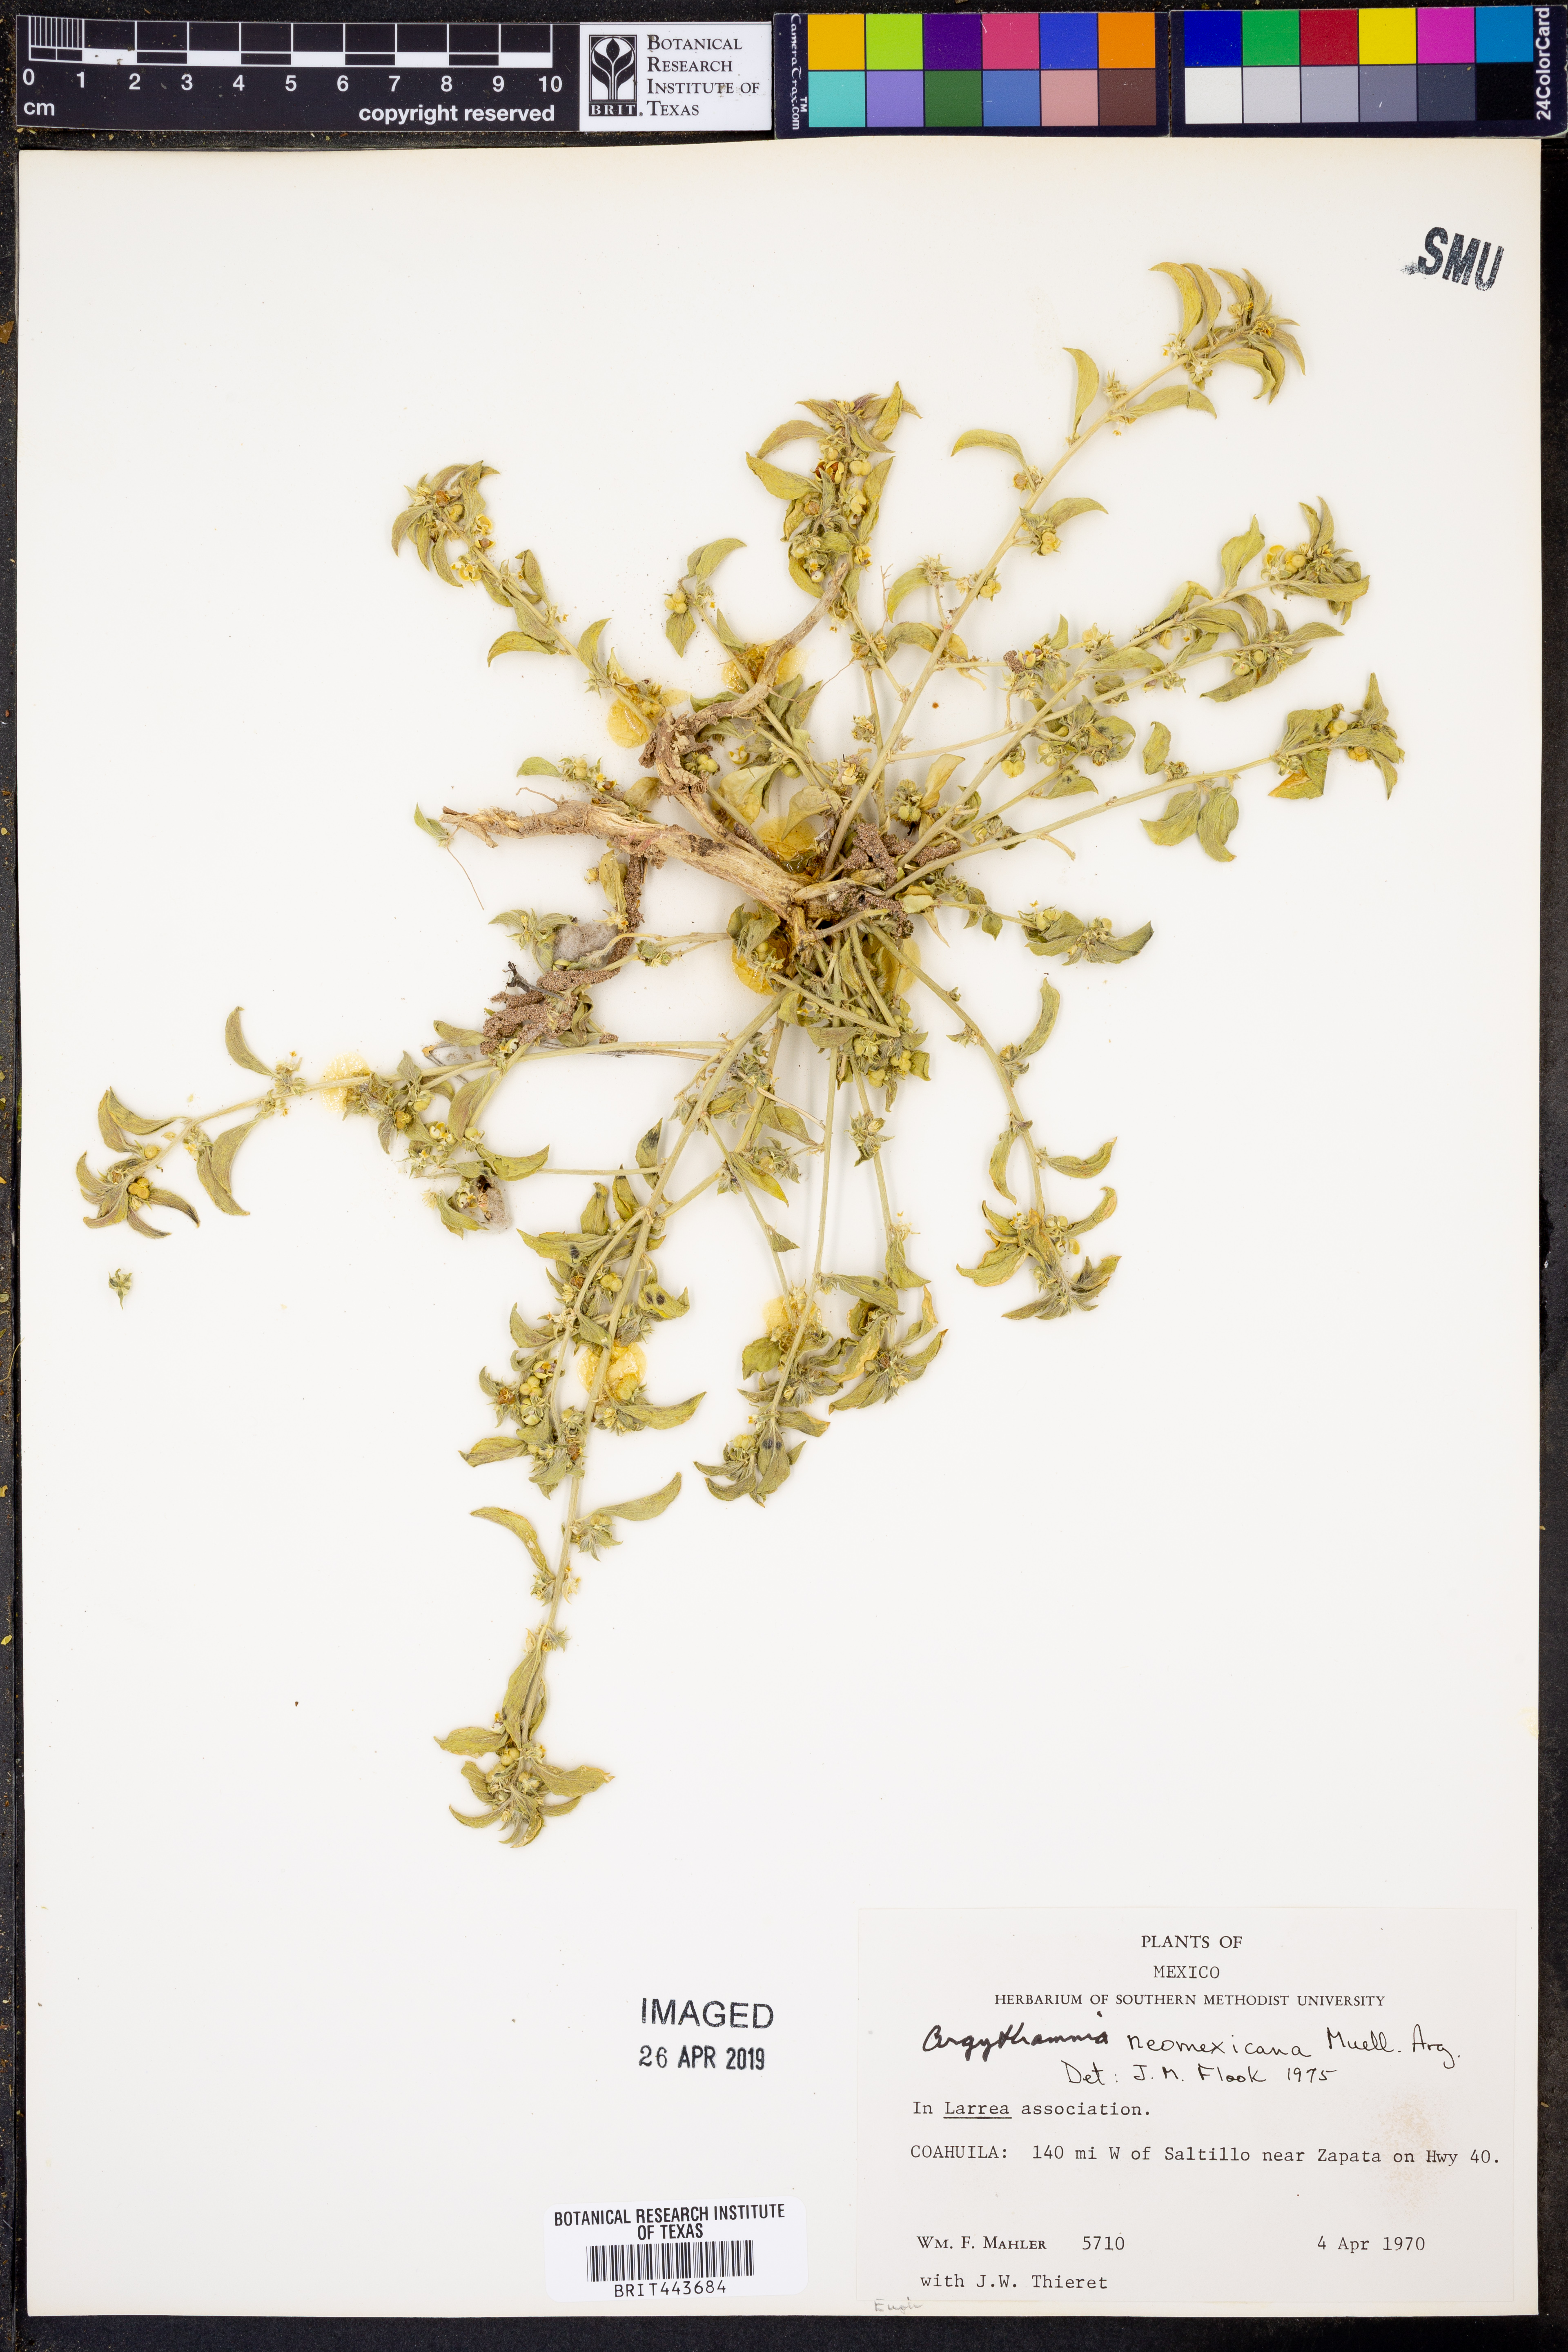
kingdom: Plantae
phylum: Tracheophyta
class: Magnoliopsida
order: Malpighiales
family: Euphorbiaceae
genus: Ditaxis
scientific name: Ditaxis serrata
